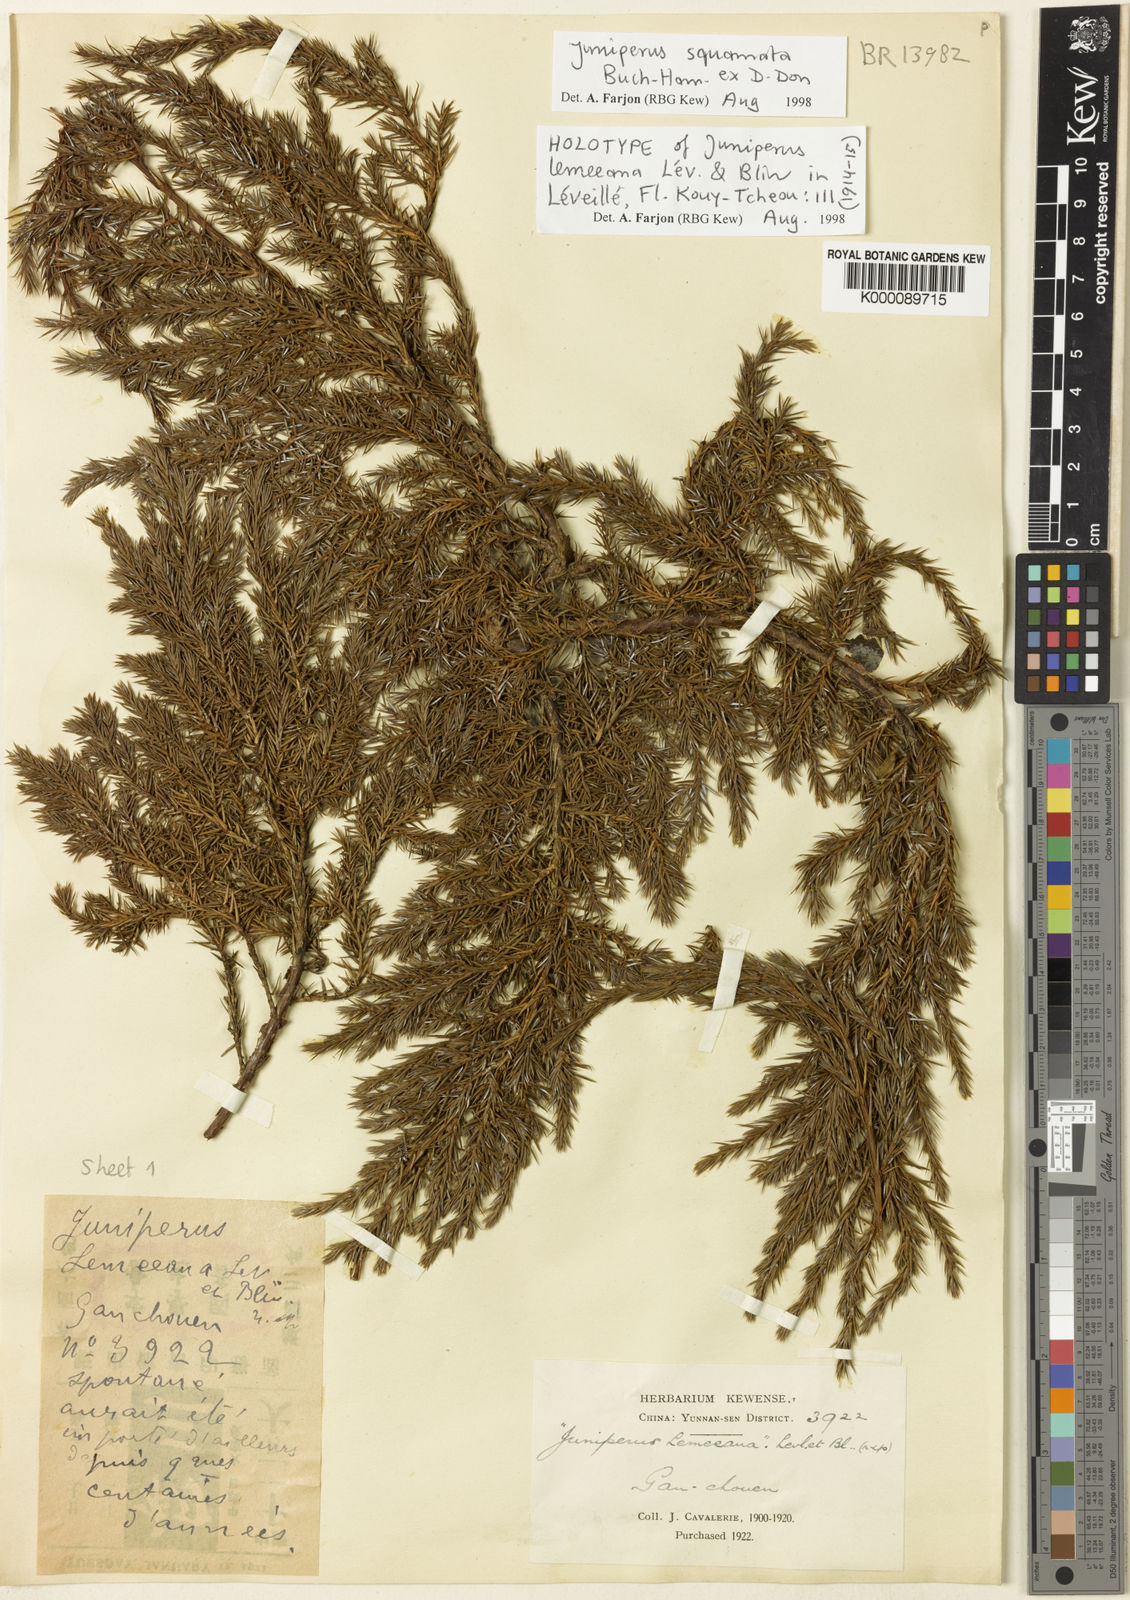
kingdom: Plantae
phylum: Tracheophyta
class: Pinopsida
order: Pinales
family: Cupressaceae
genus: Juniperus
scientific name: Juniperus squamata
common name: Flaky juniper
